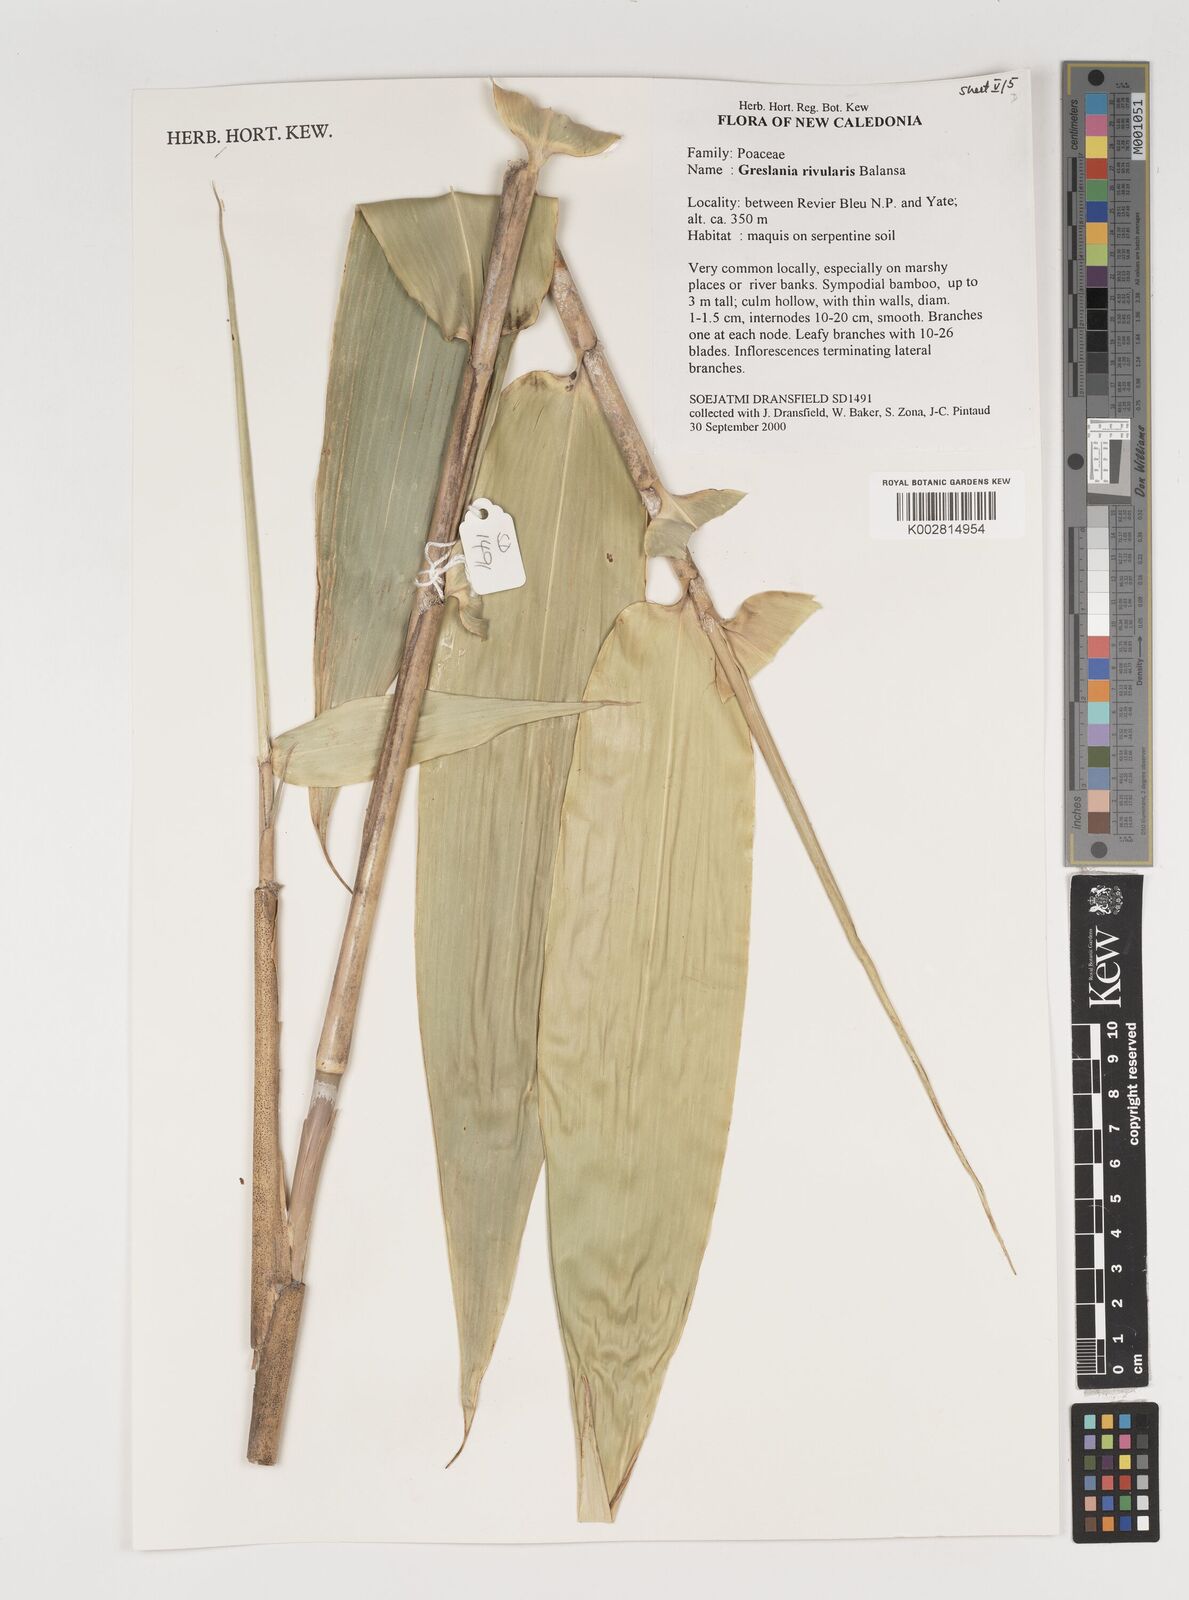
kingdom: Plantae
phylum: Tracheophyta
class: Liliopsida
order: Poales
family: Poaceae
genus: Greslania
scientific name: Greslania rivularis
